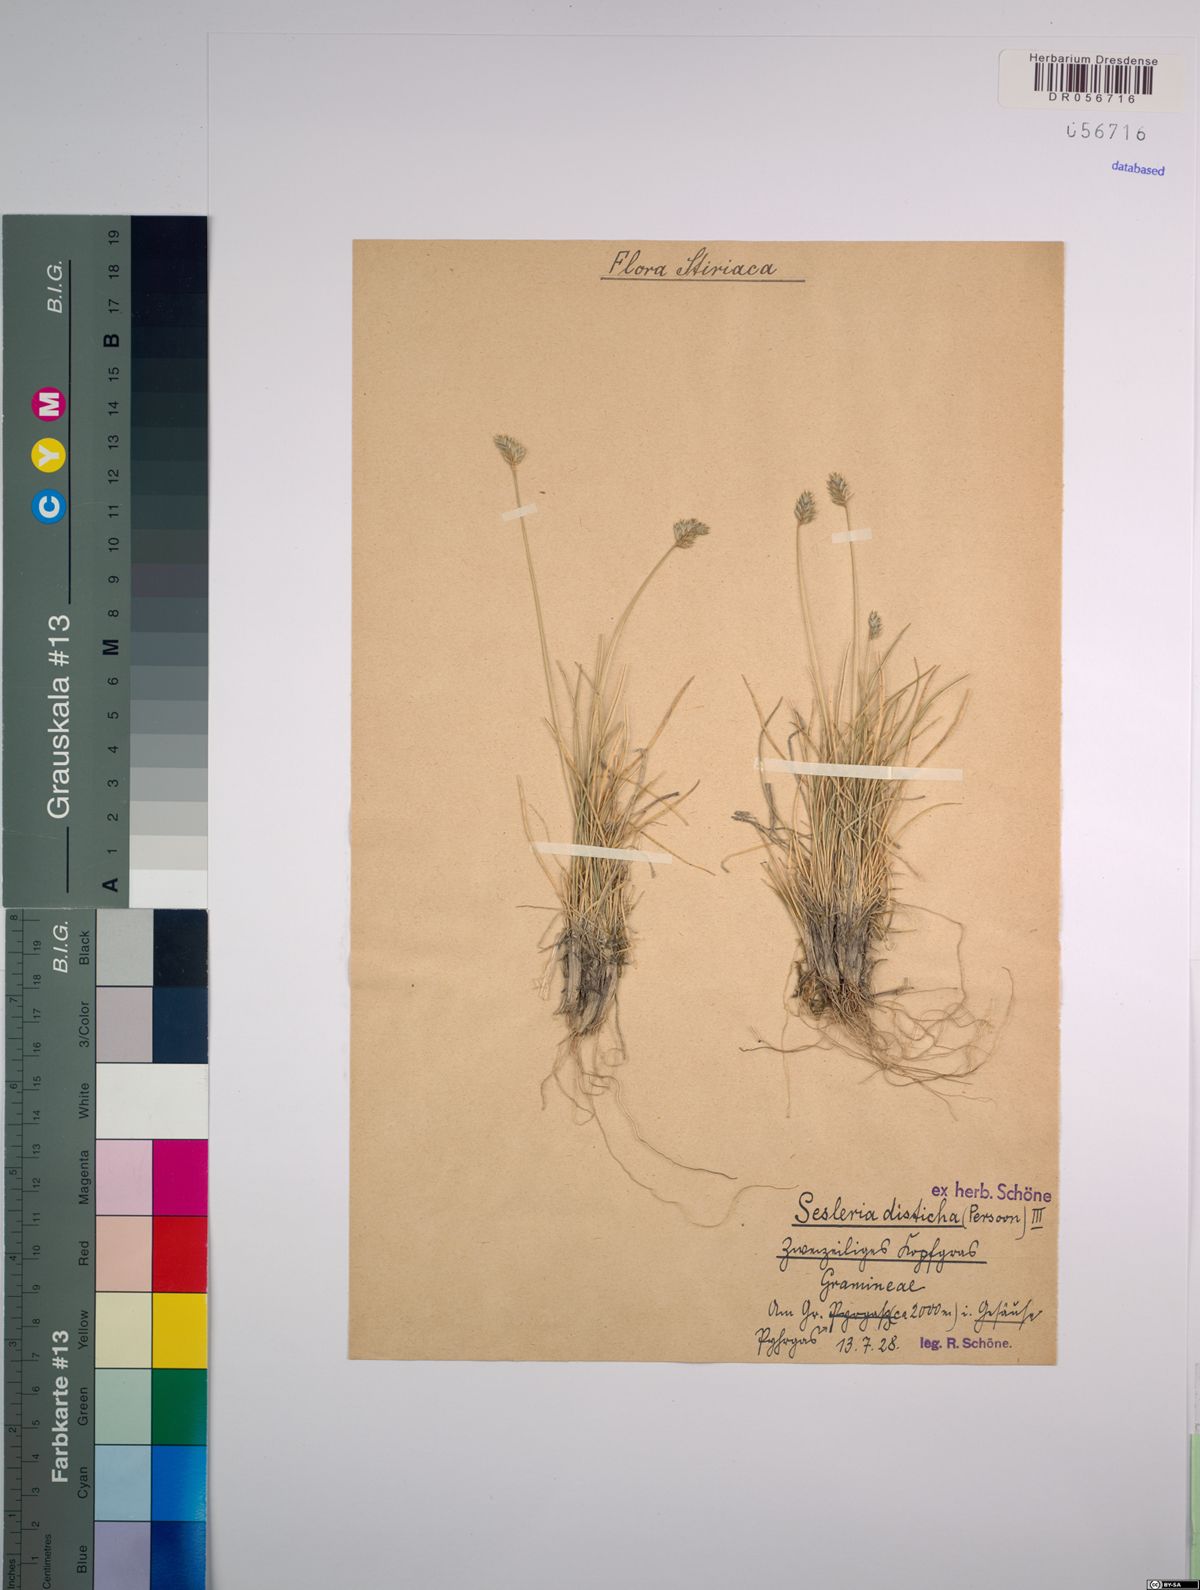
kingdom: Plantae
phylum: Tracheophyta
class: Liliopsida
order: Poales
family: Poaceae
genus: Oreochloa
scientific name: Oreochloa disticha
